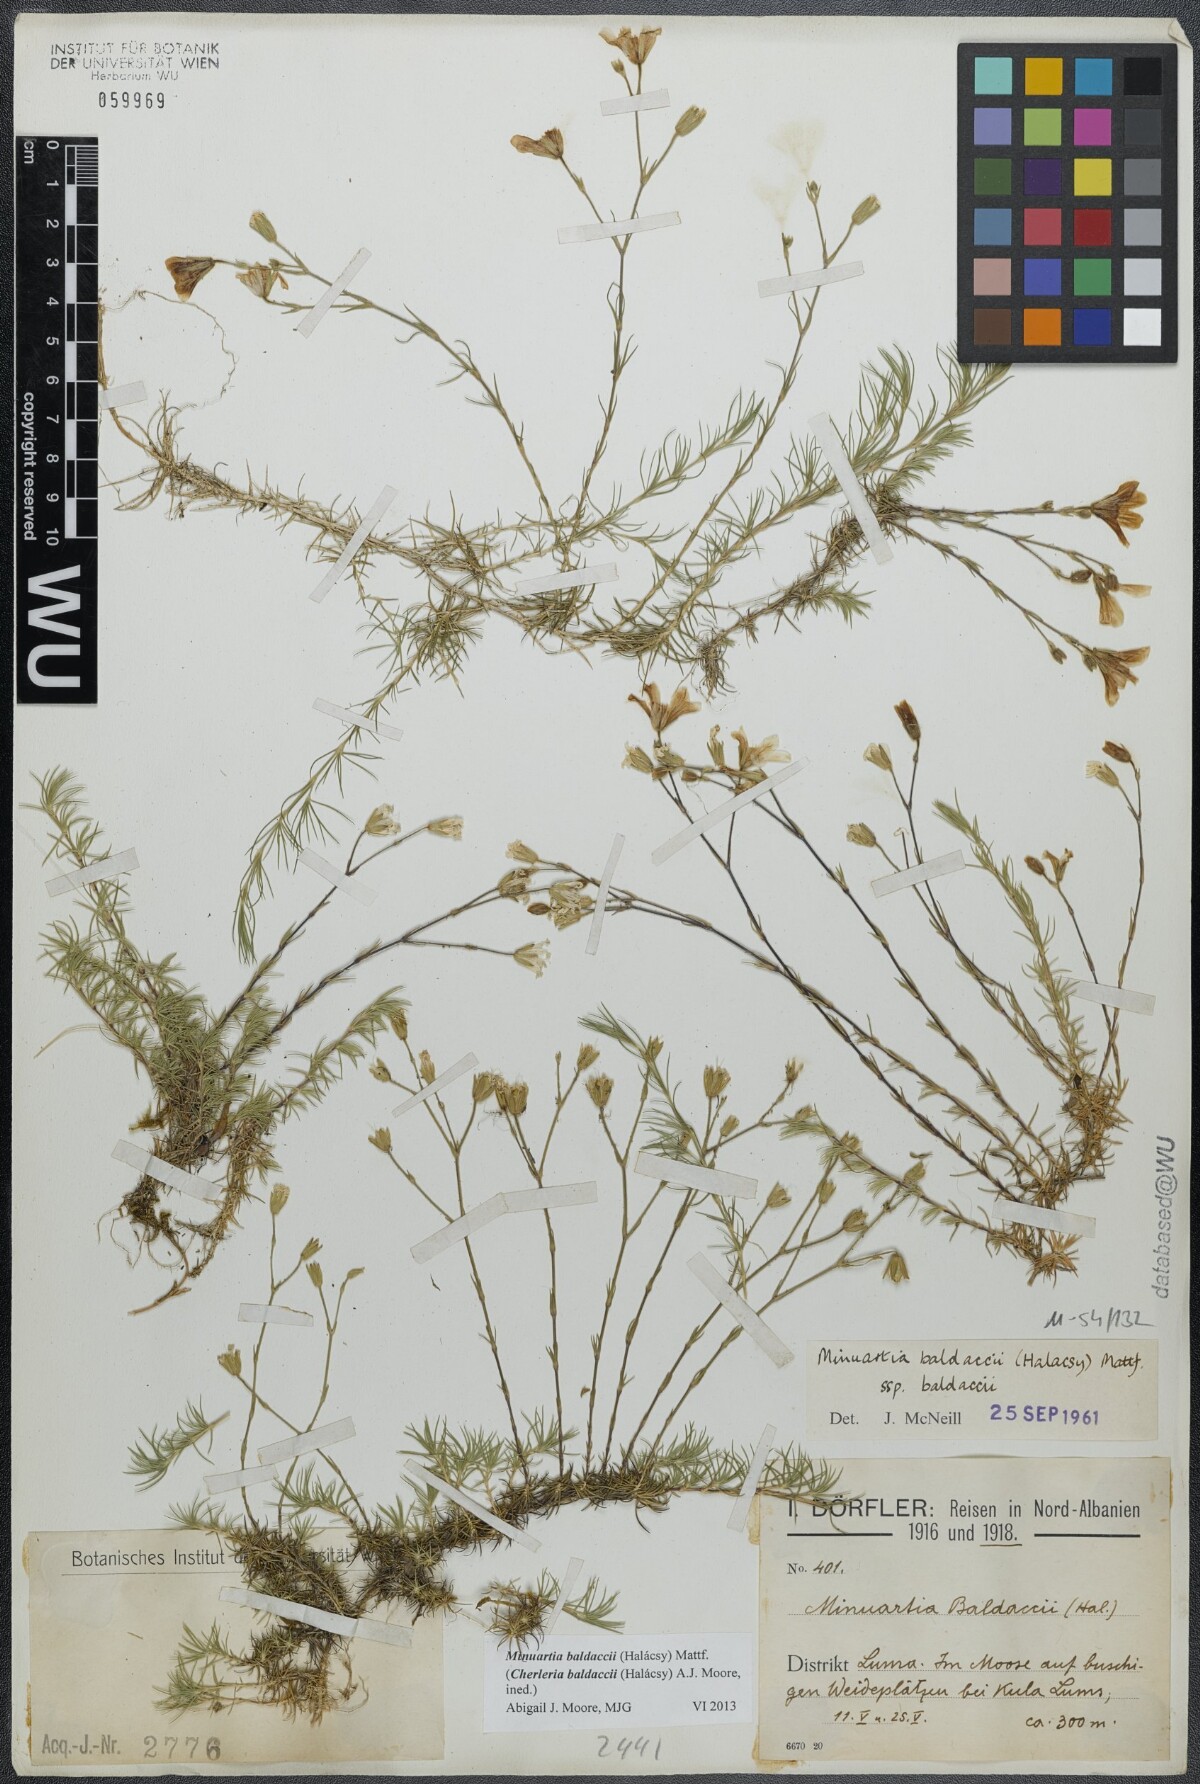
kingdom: Plantae
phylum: Tracheophyta
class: Magnoliopsida
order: Caryophyllales
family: Caryophyllaceae
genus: Cherleria
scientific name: Cherleria baldaccii
